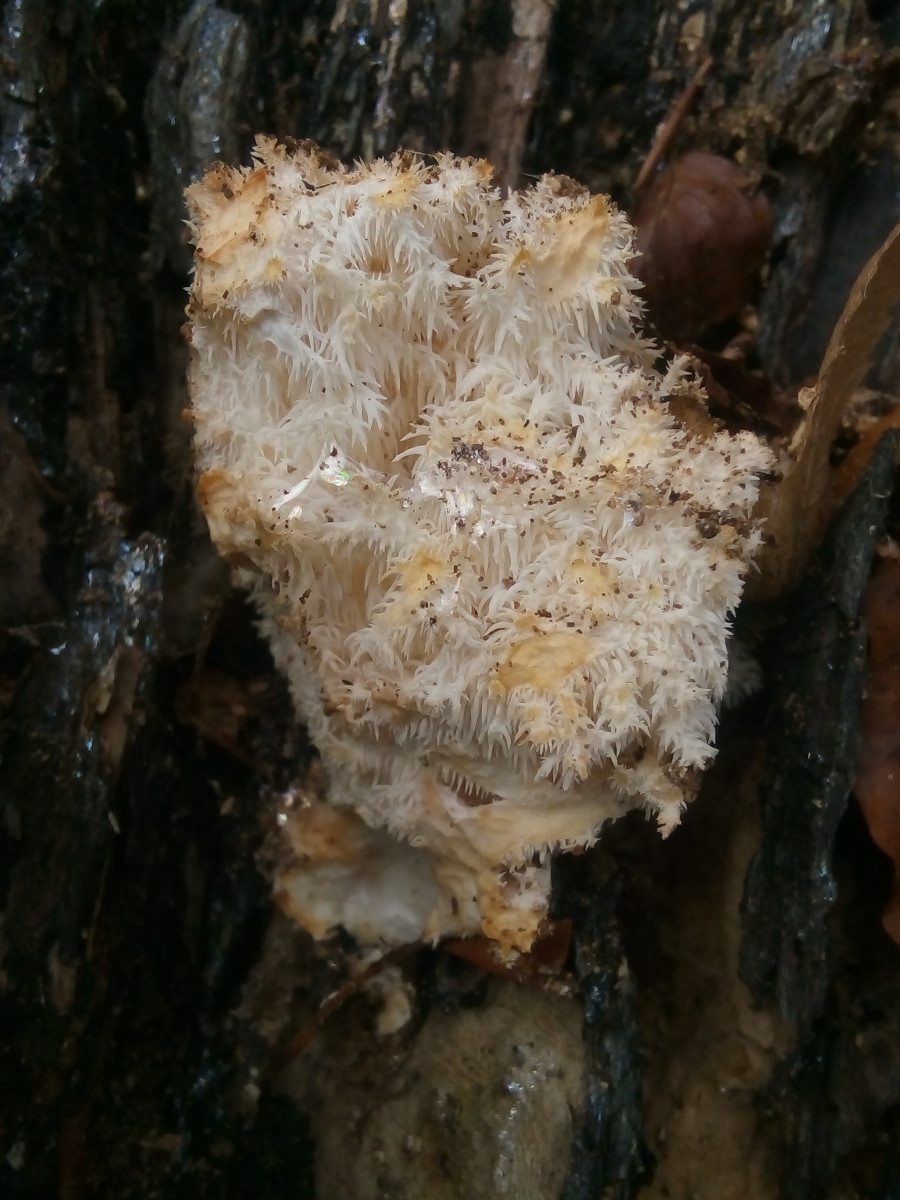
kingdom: Fungi
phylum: Basidiomycota
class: Agaricomycetes
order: Russulales
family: Hericiaceae
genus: Hericium
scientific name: Hericium coralloides
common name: koralpigsvamp
